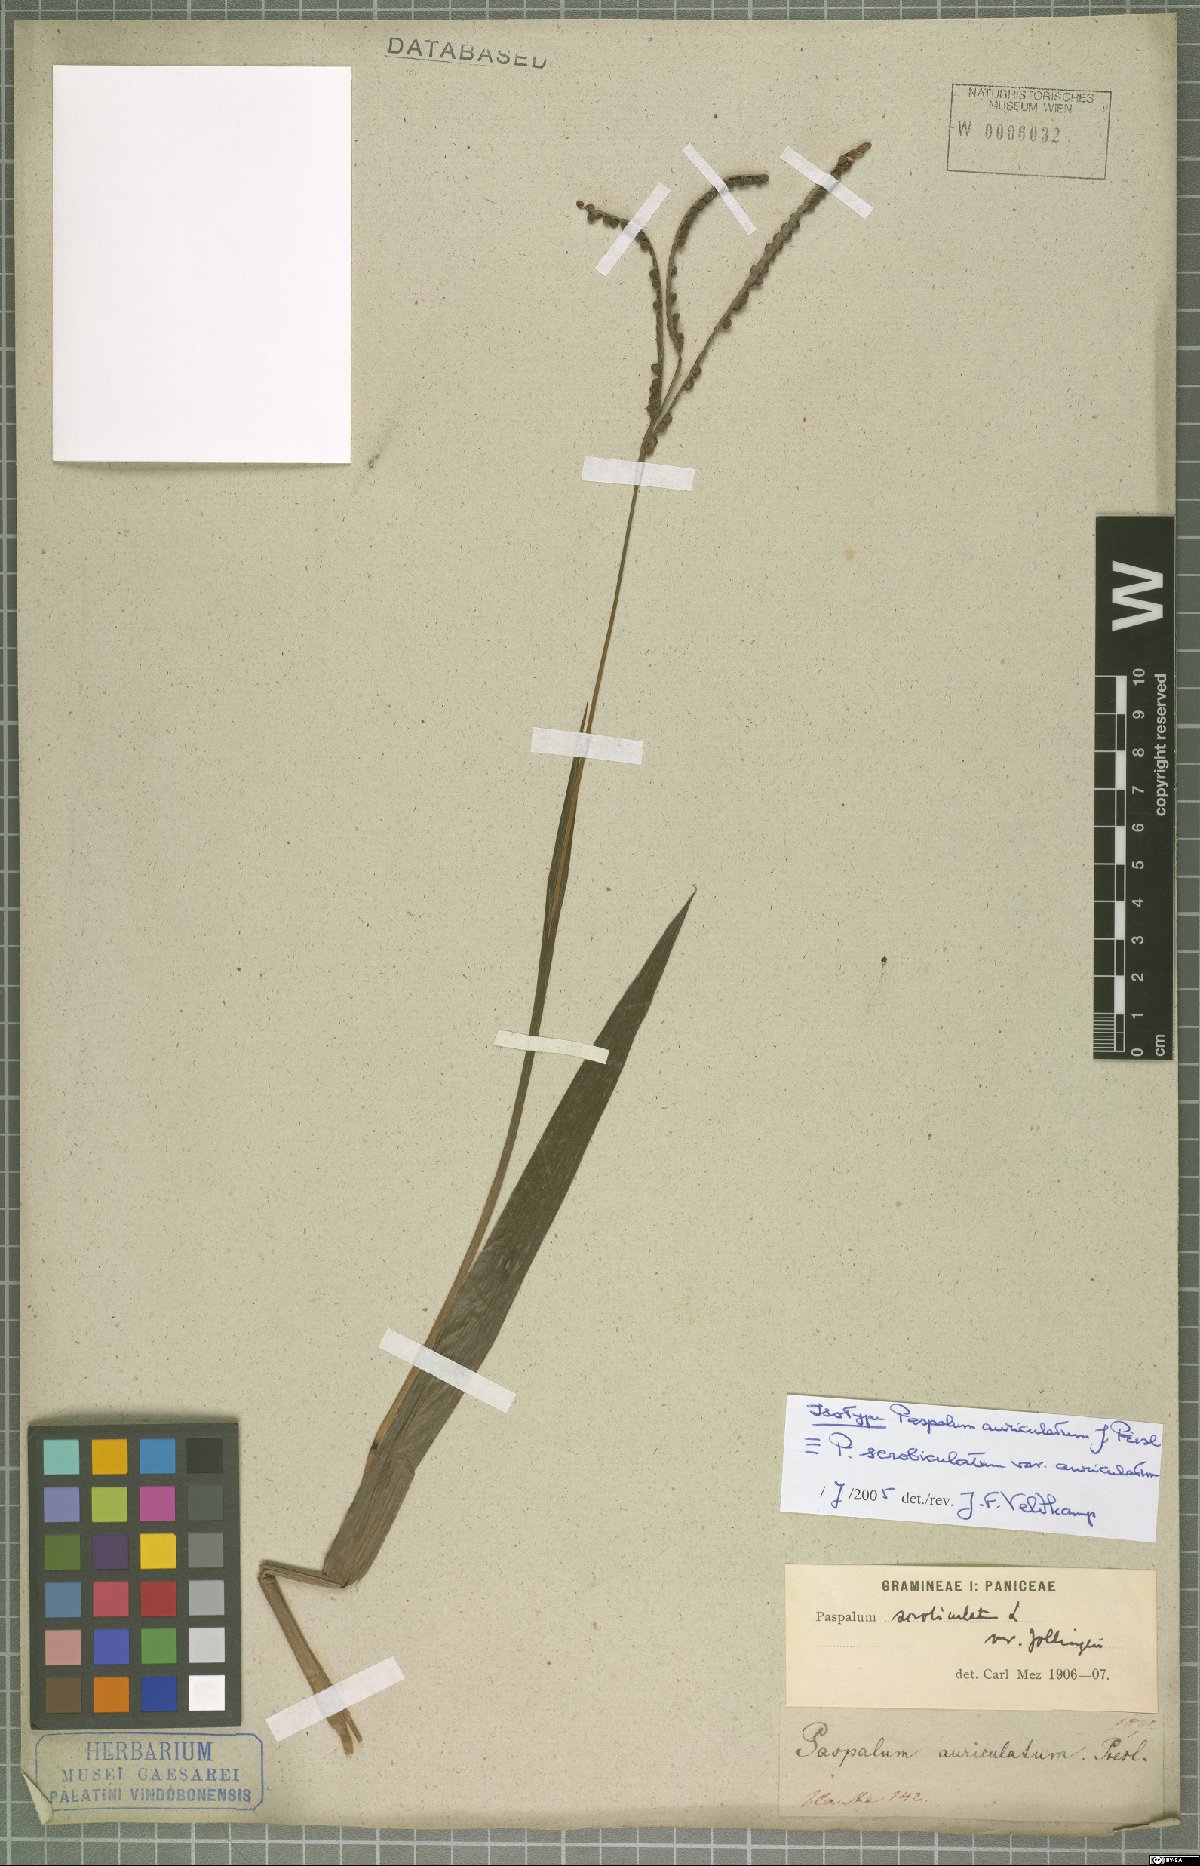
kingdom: Plantae
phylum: Tracheophyta
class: Liliopsida
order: Poales
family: Poaceae
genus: Paspalum
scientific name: Paspalum scrobiculatum
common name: Kodo millet
